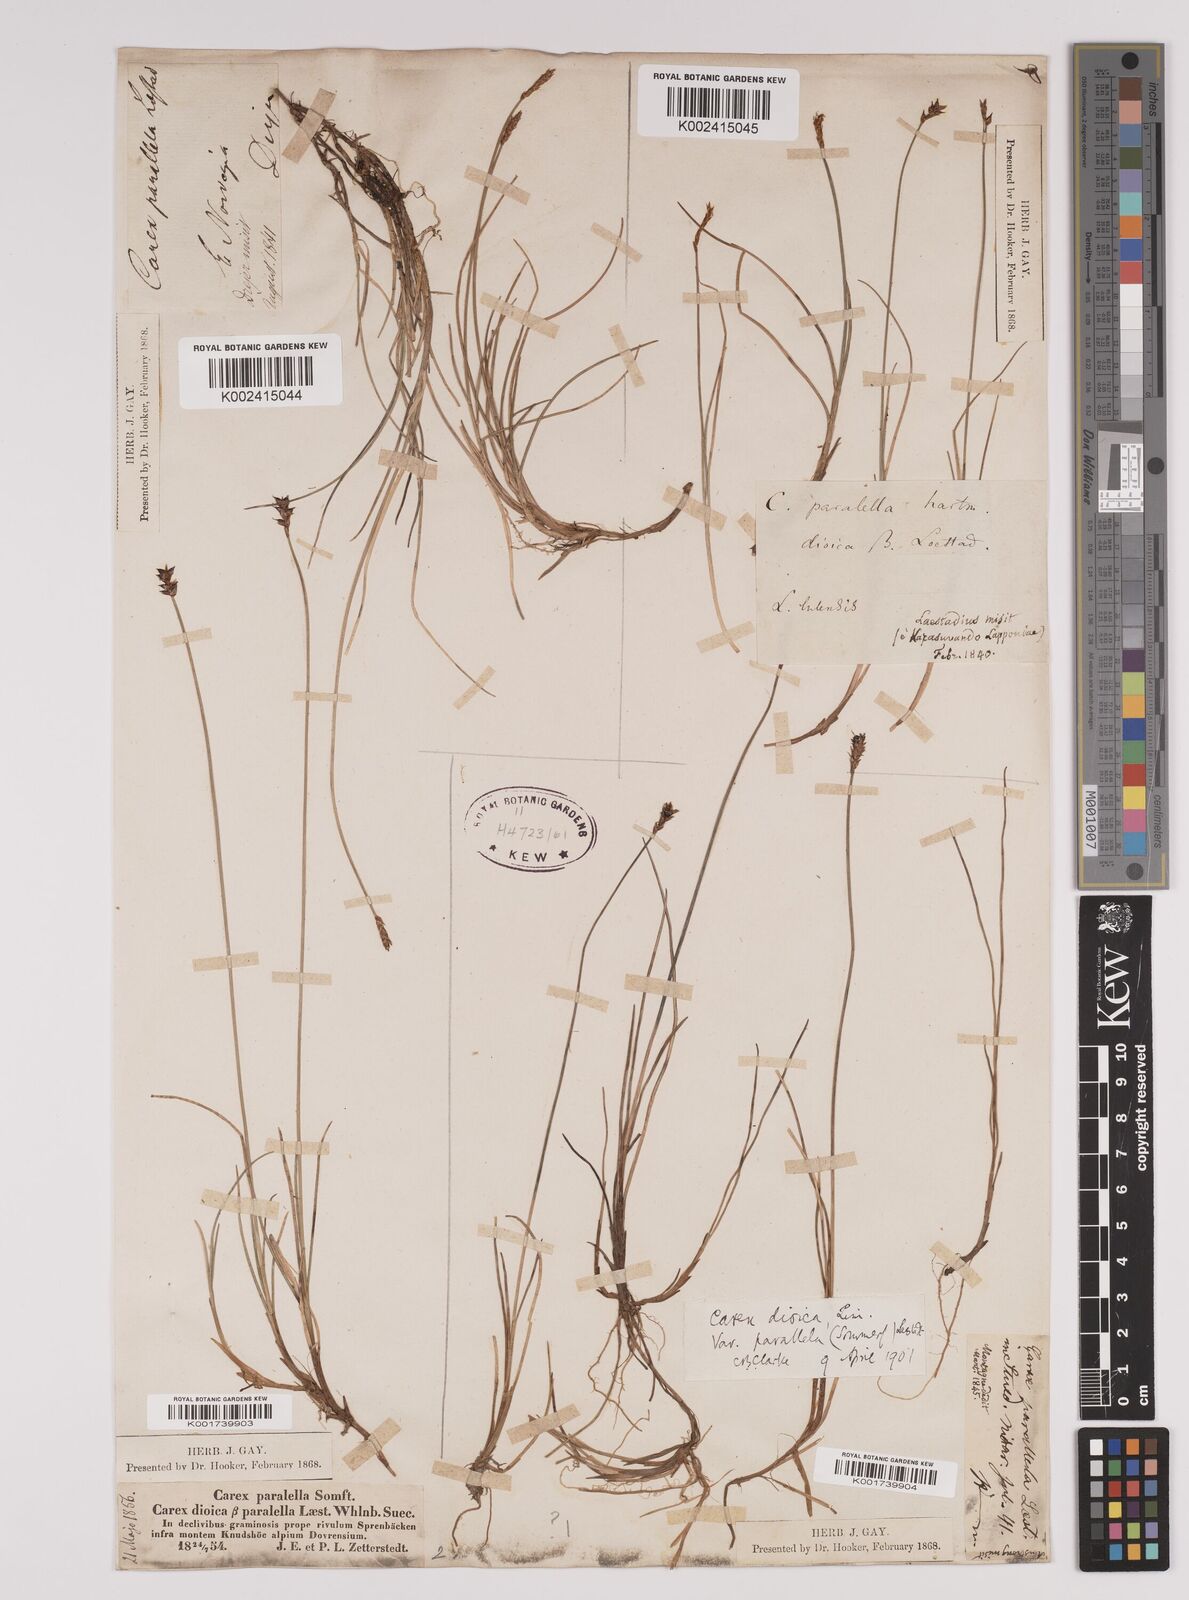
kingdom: Plantae
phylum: Tracheophyta
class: Liliopsida
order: Poales
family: Cyperaceae
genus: Carex
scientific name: Carex parallela
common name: Parallel sedge
